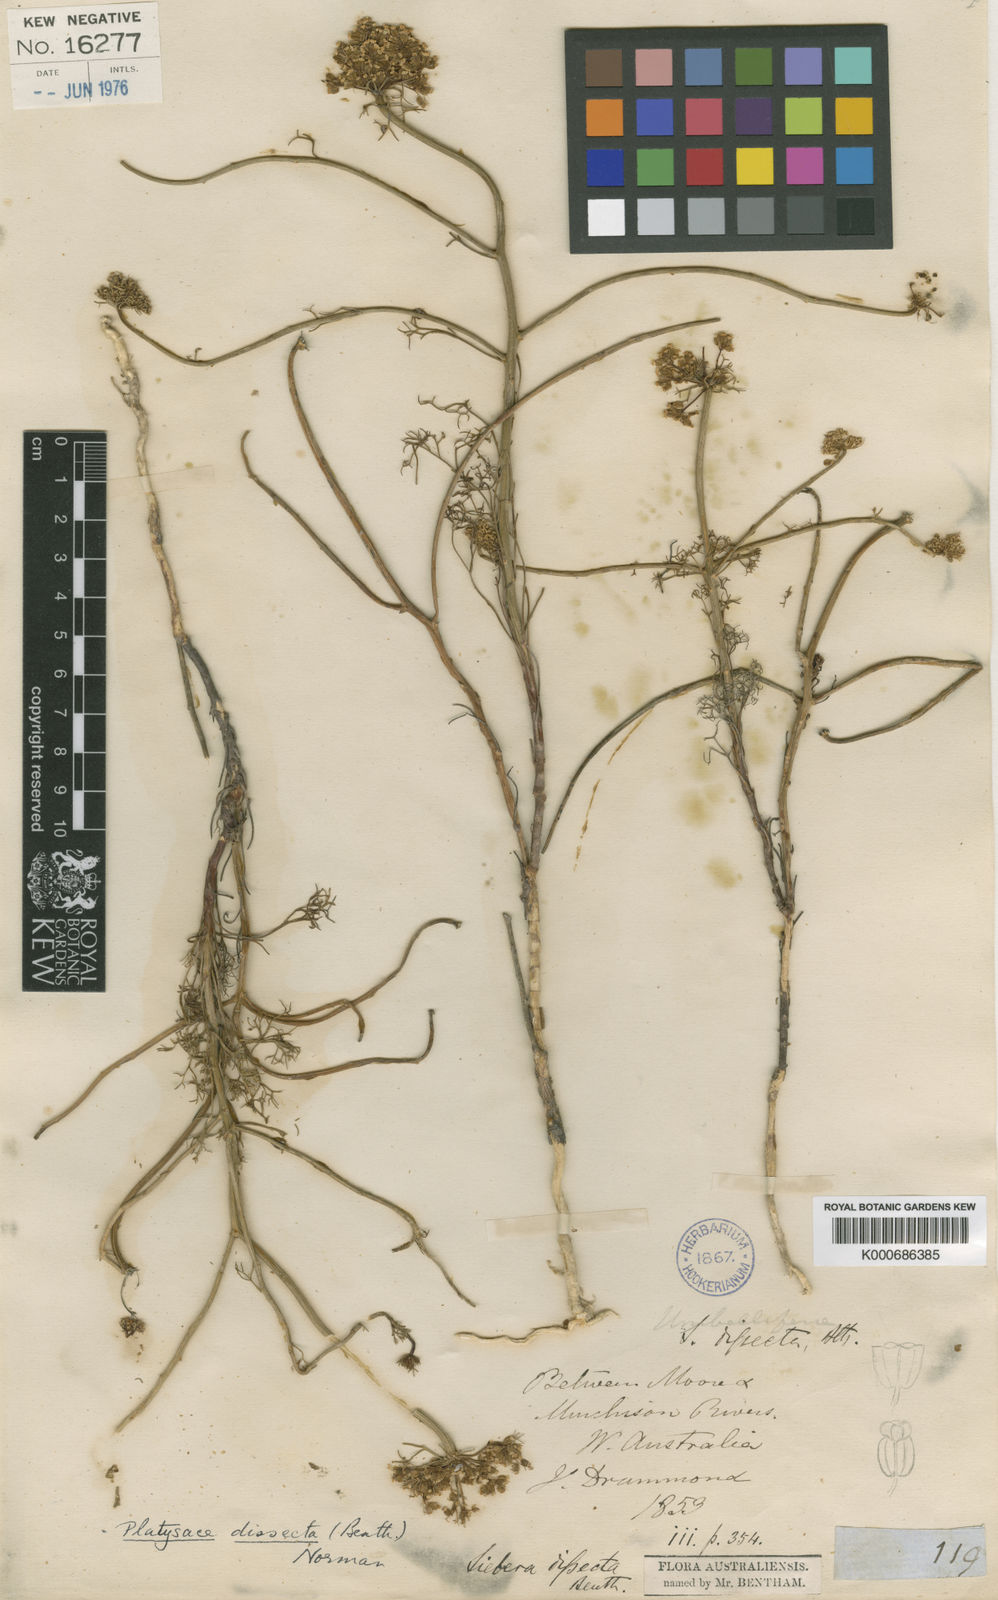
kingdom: Plantae
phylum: Tracheophyta
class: Magnoliopsida
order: Apiales
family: Apiaceae
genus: Platysace
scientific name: Platysace juncea
